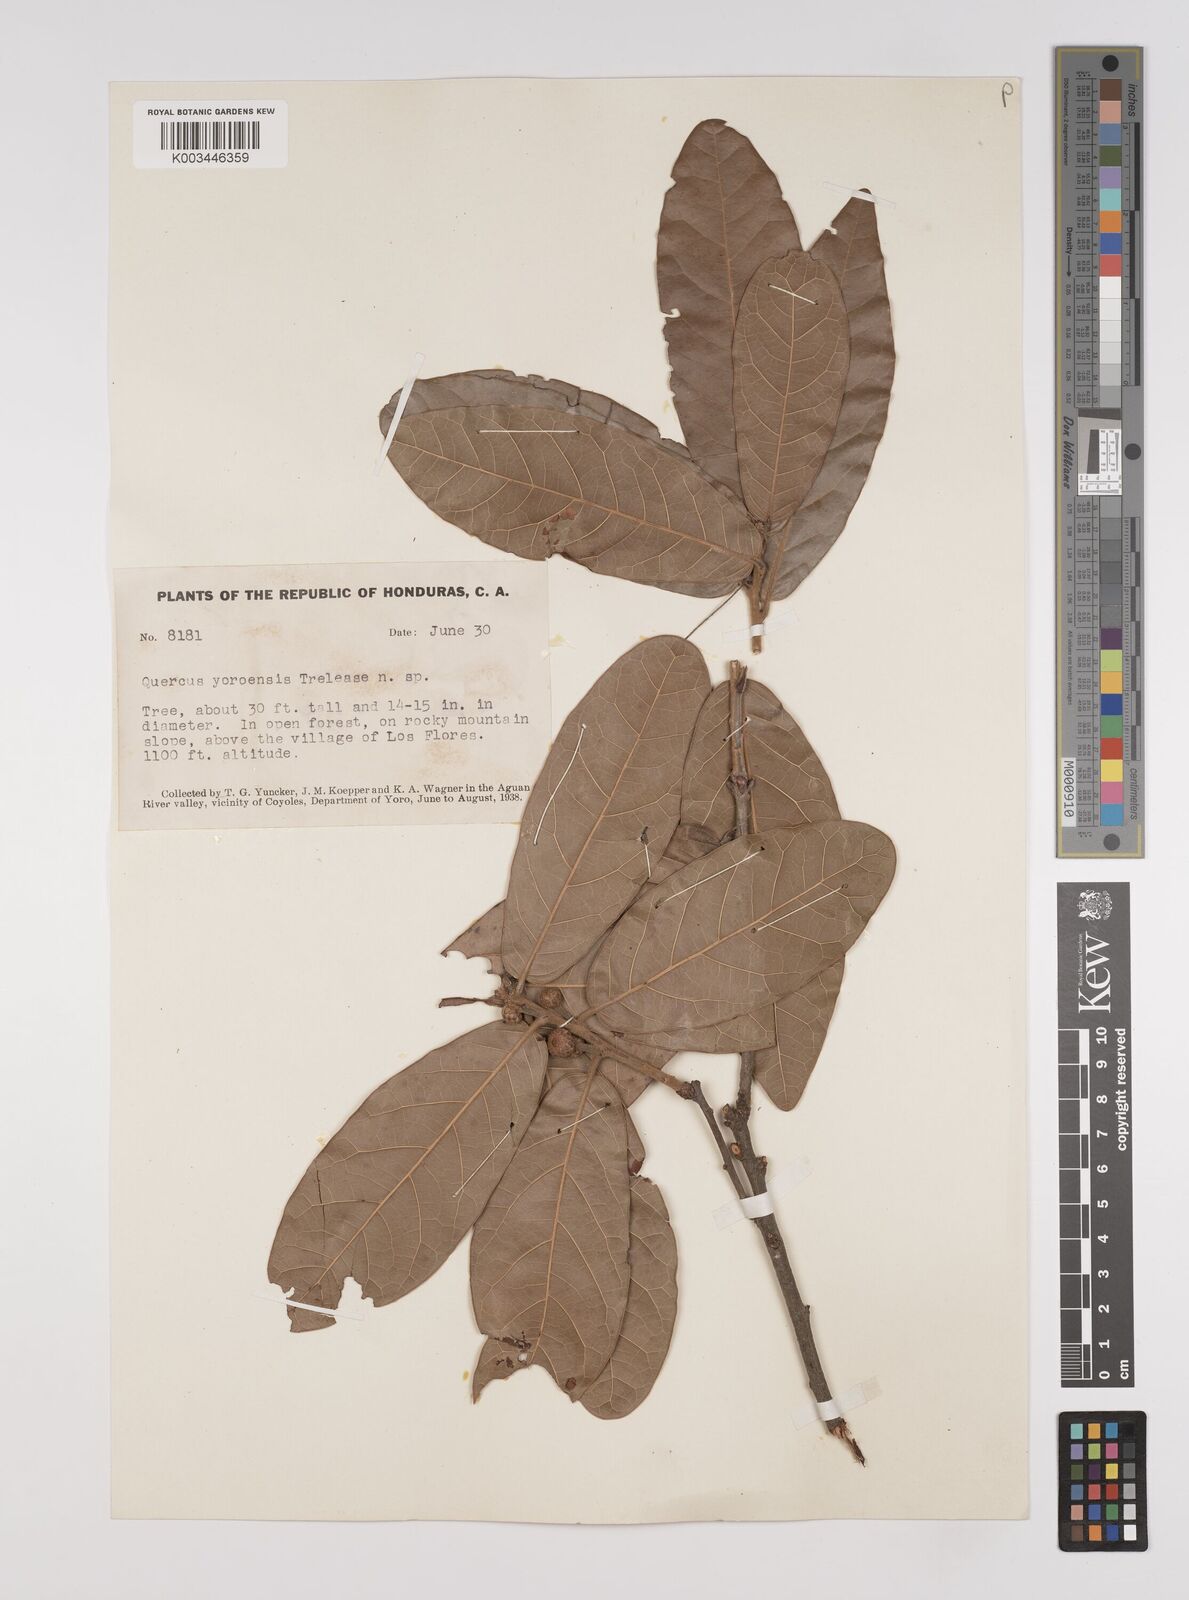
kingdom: Plantae
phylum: Tracheophyta
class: Magnoliopsida
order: Fagales
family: Fagaceae
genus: Quercus
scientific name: Quercus elliptica
